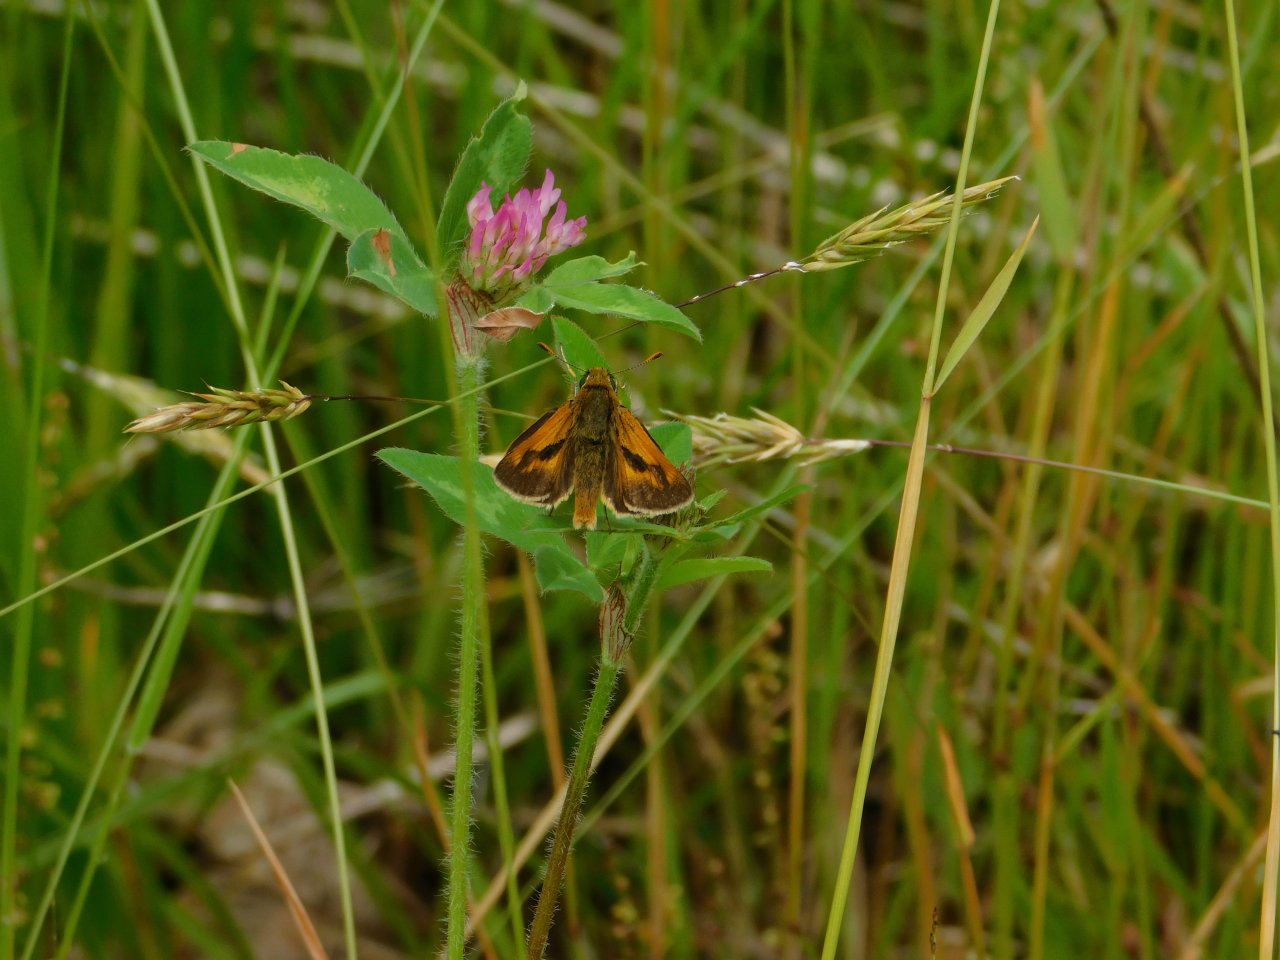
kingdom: Animalia
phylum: Arthropoda
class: Insecta
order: Lepidoptera
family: Hesperiidae
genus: Polites
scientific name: Polites
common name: Long Dash Skipper
